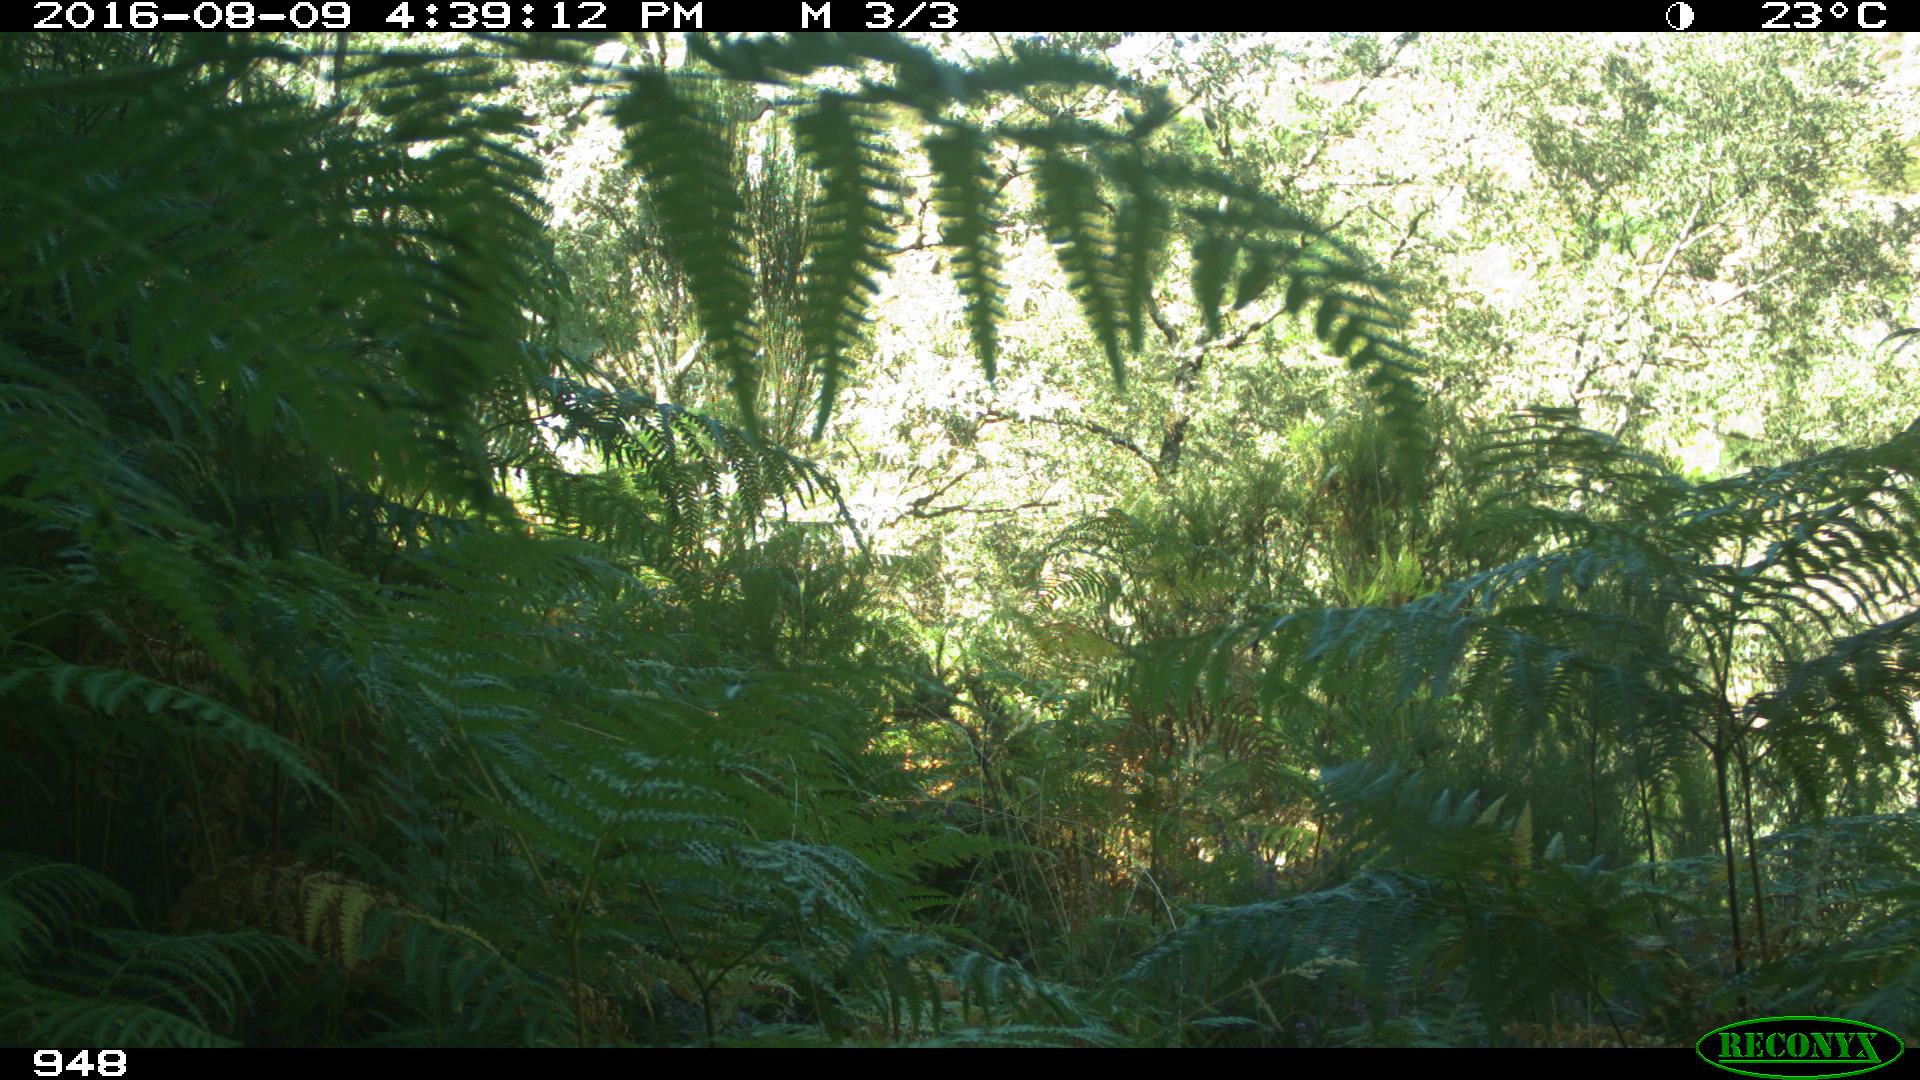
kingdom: Animalia
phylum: Chordata
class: Mammalia
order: Artiodactyla
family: Bovidae
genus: Bos
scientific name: Bos taurus
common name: Domesticated cattle
